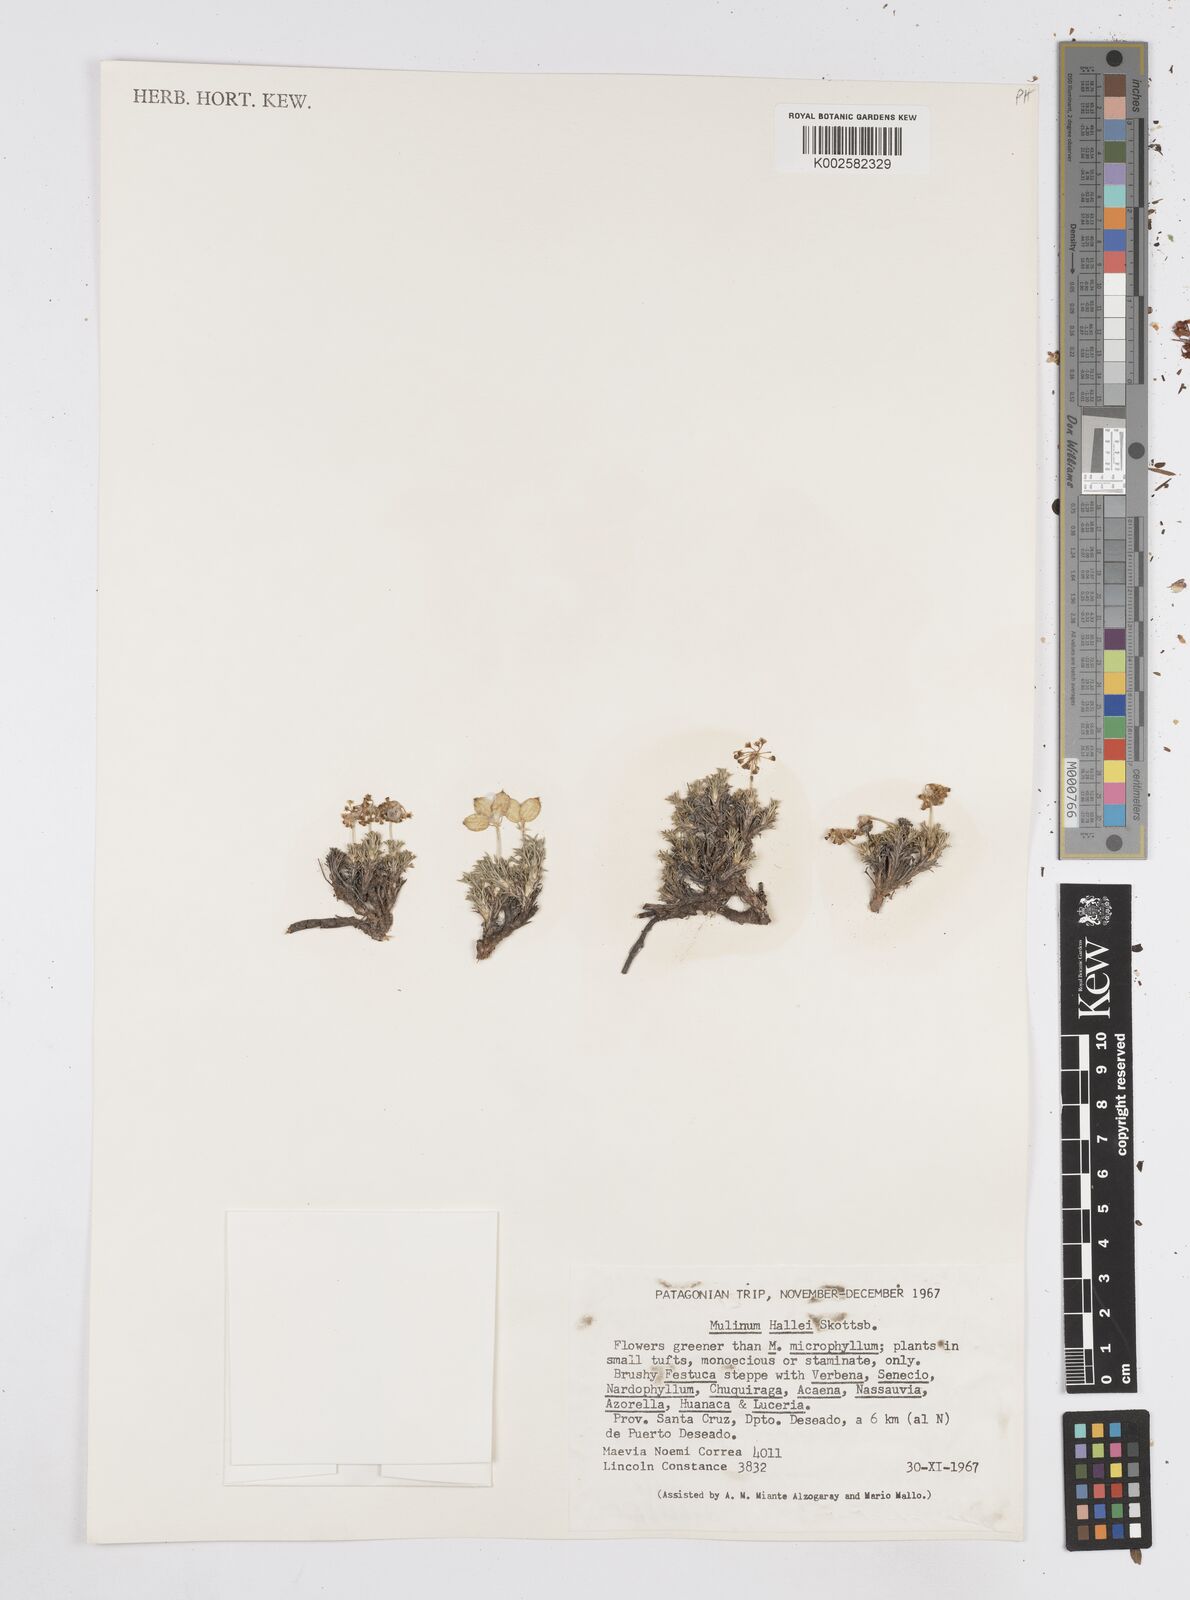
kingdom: Plantae
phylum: Tracheophyta
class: Magnoliopsida
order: Apiales
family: Apiaceae
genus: Azorella
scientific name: Azorella hallei
